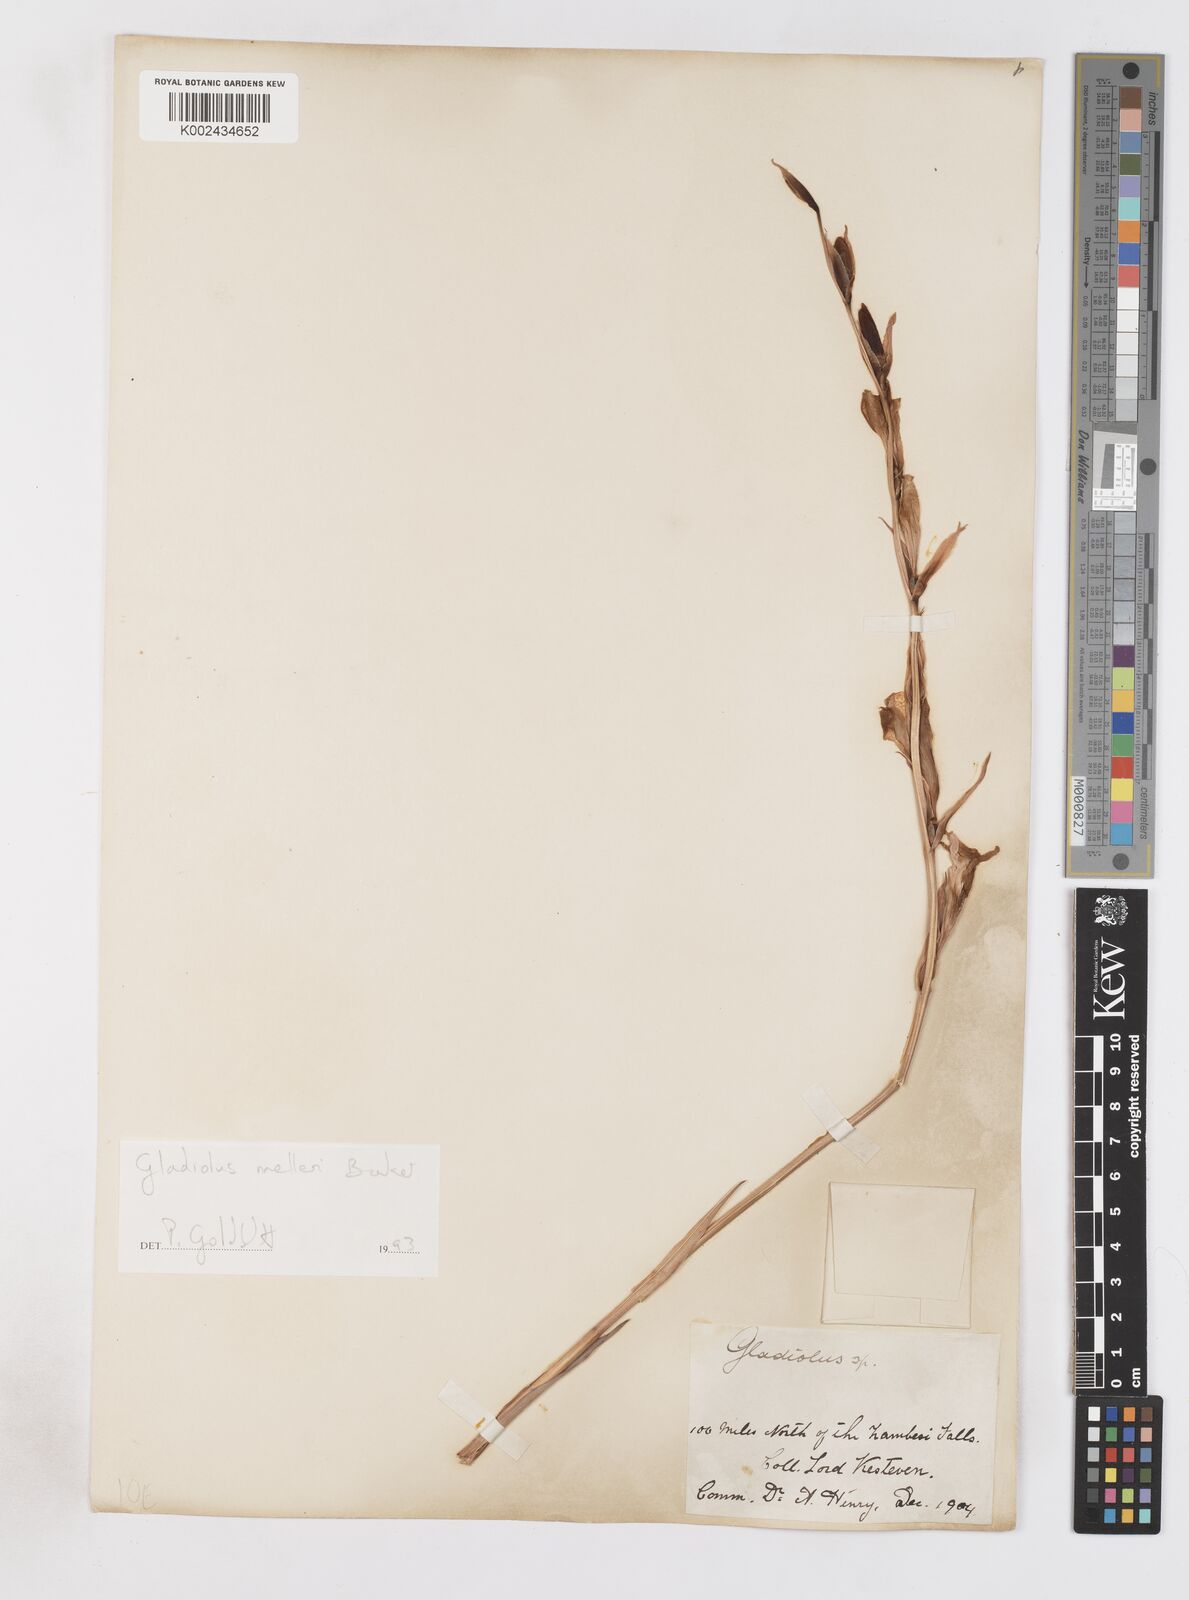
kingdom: Plantae
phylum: Tracheophyta
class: Liliopsida
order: Asparagales
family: Iridaceae
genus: Gladiolus
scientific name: Gladiolus melleri
